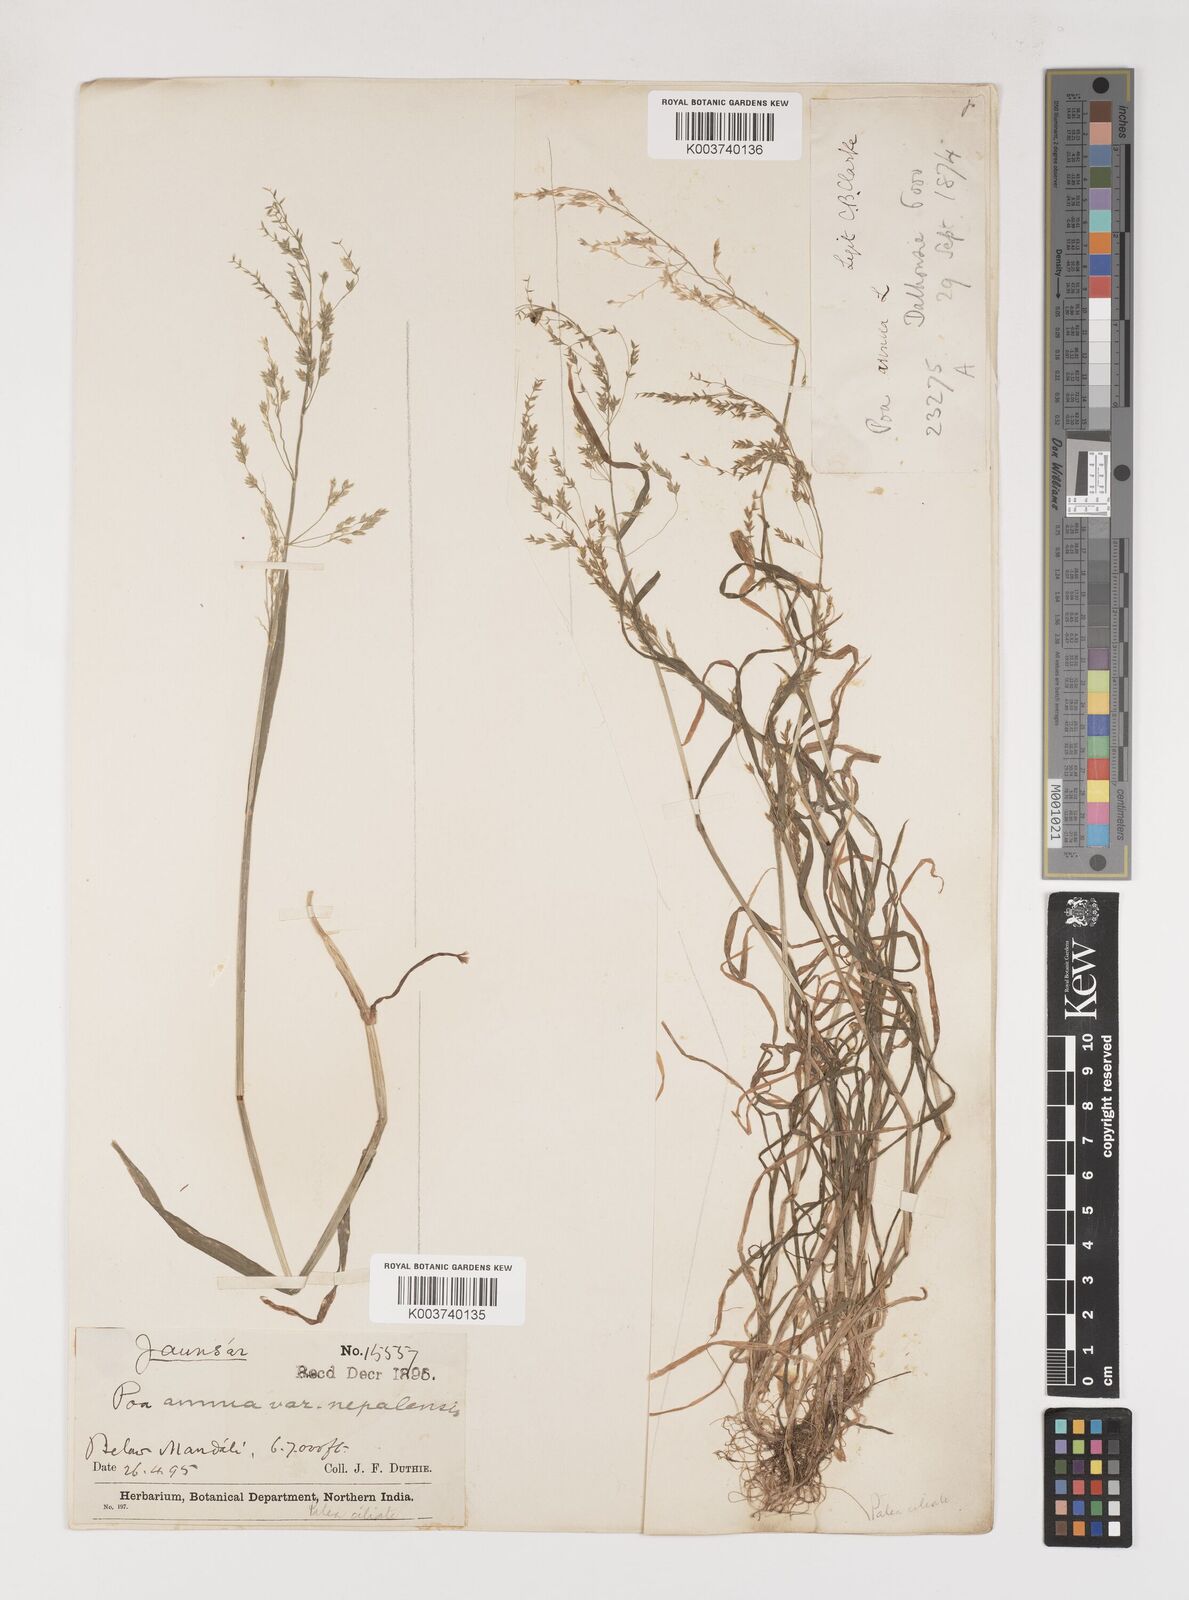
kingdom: Plantae
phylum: Tracheophyta
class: Liliopsida
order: Poales
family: Poaceae
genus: Poa
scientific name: Poa nepalensis
